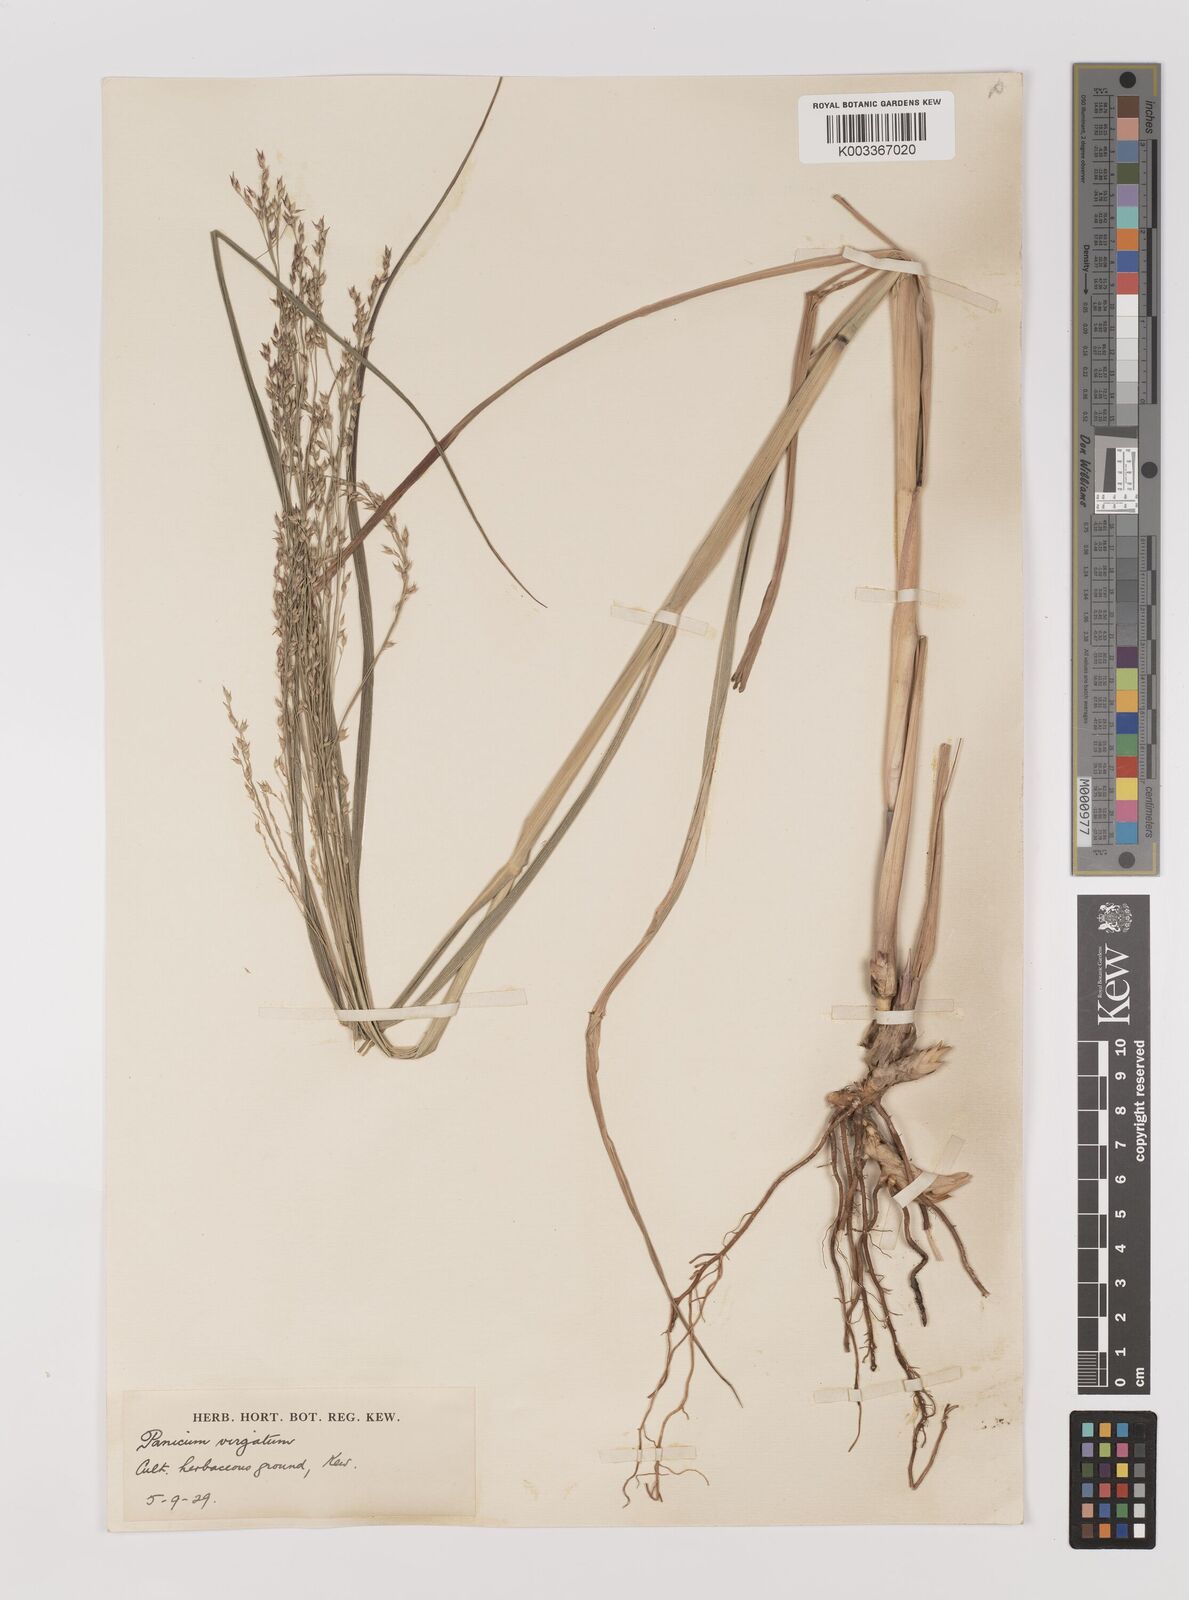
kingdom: Plantae
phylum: Tracheophyta
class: Liliopsida
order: Poales
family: Poaceae
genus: Panicum
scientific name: Panicum virgatum
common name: Switchgrass
